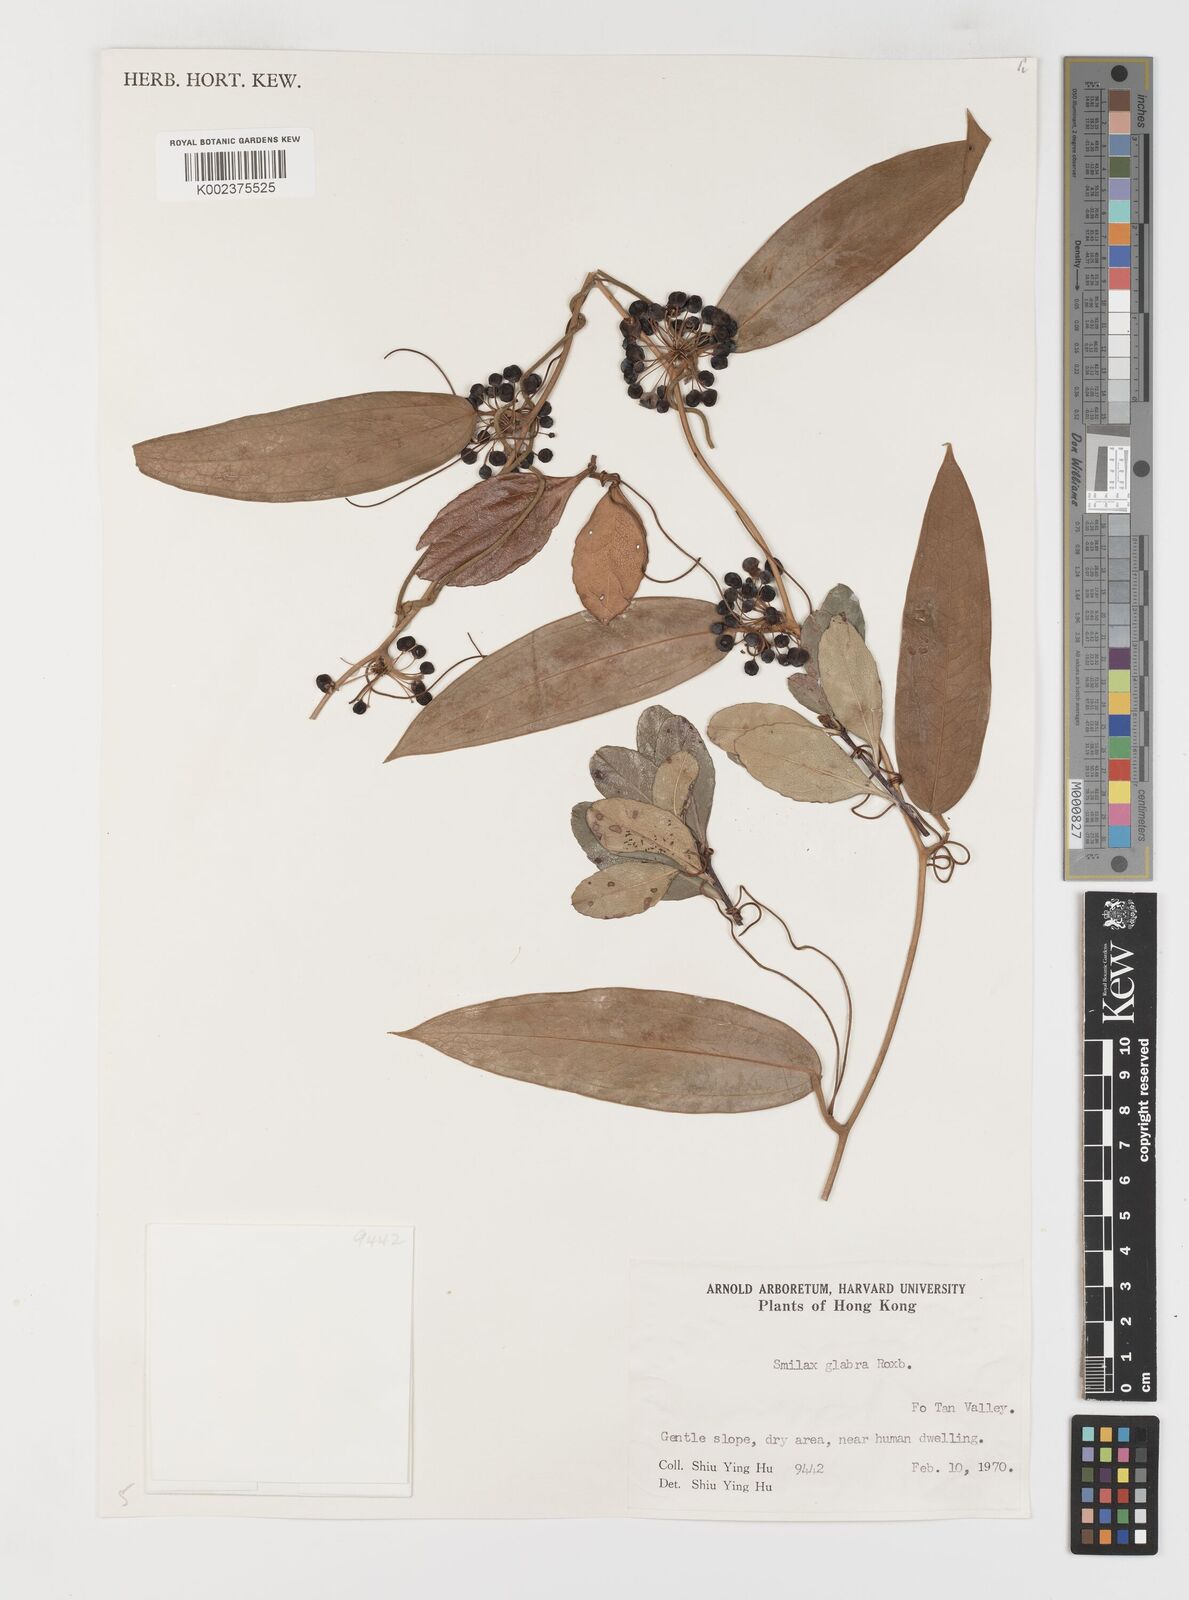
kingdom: Plantae
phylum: Tracheophyta
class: Liliopsida
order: Liliales
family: Smilacaceae
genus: Smilax
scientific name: Smilax glabra
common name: Chinese smilax
